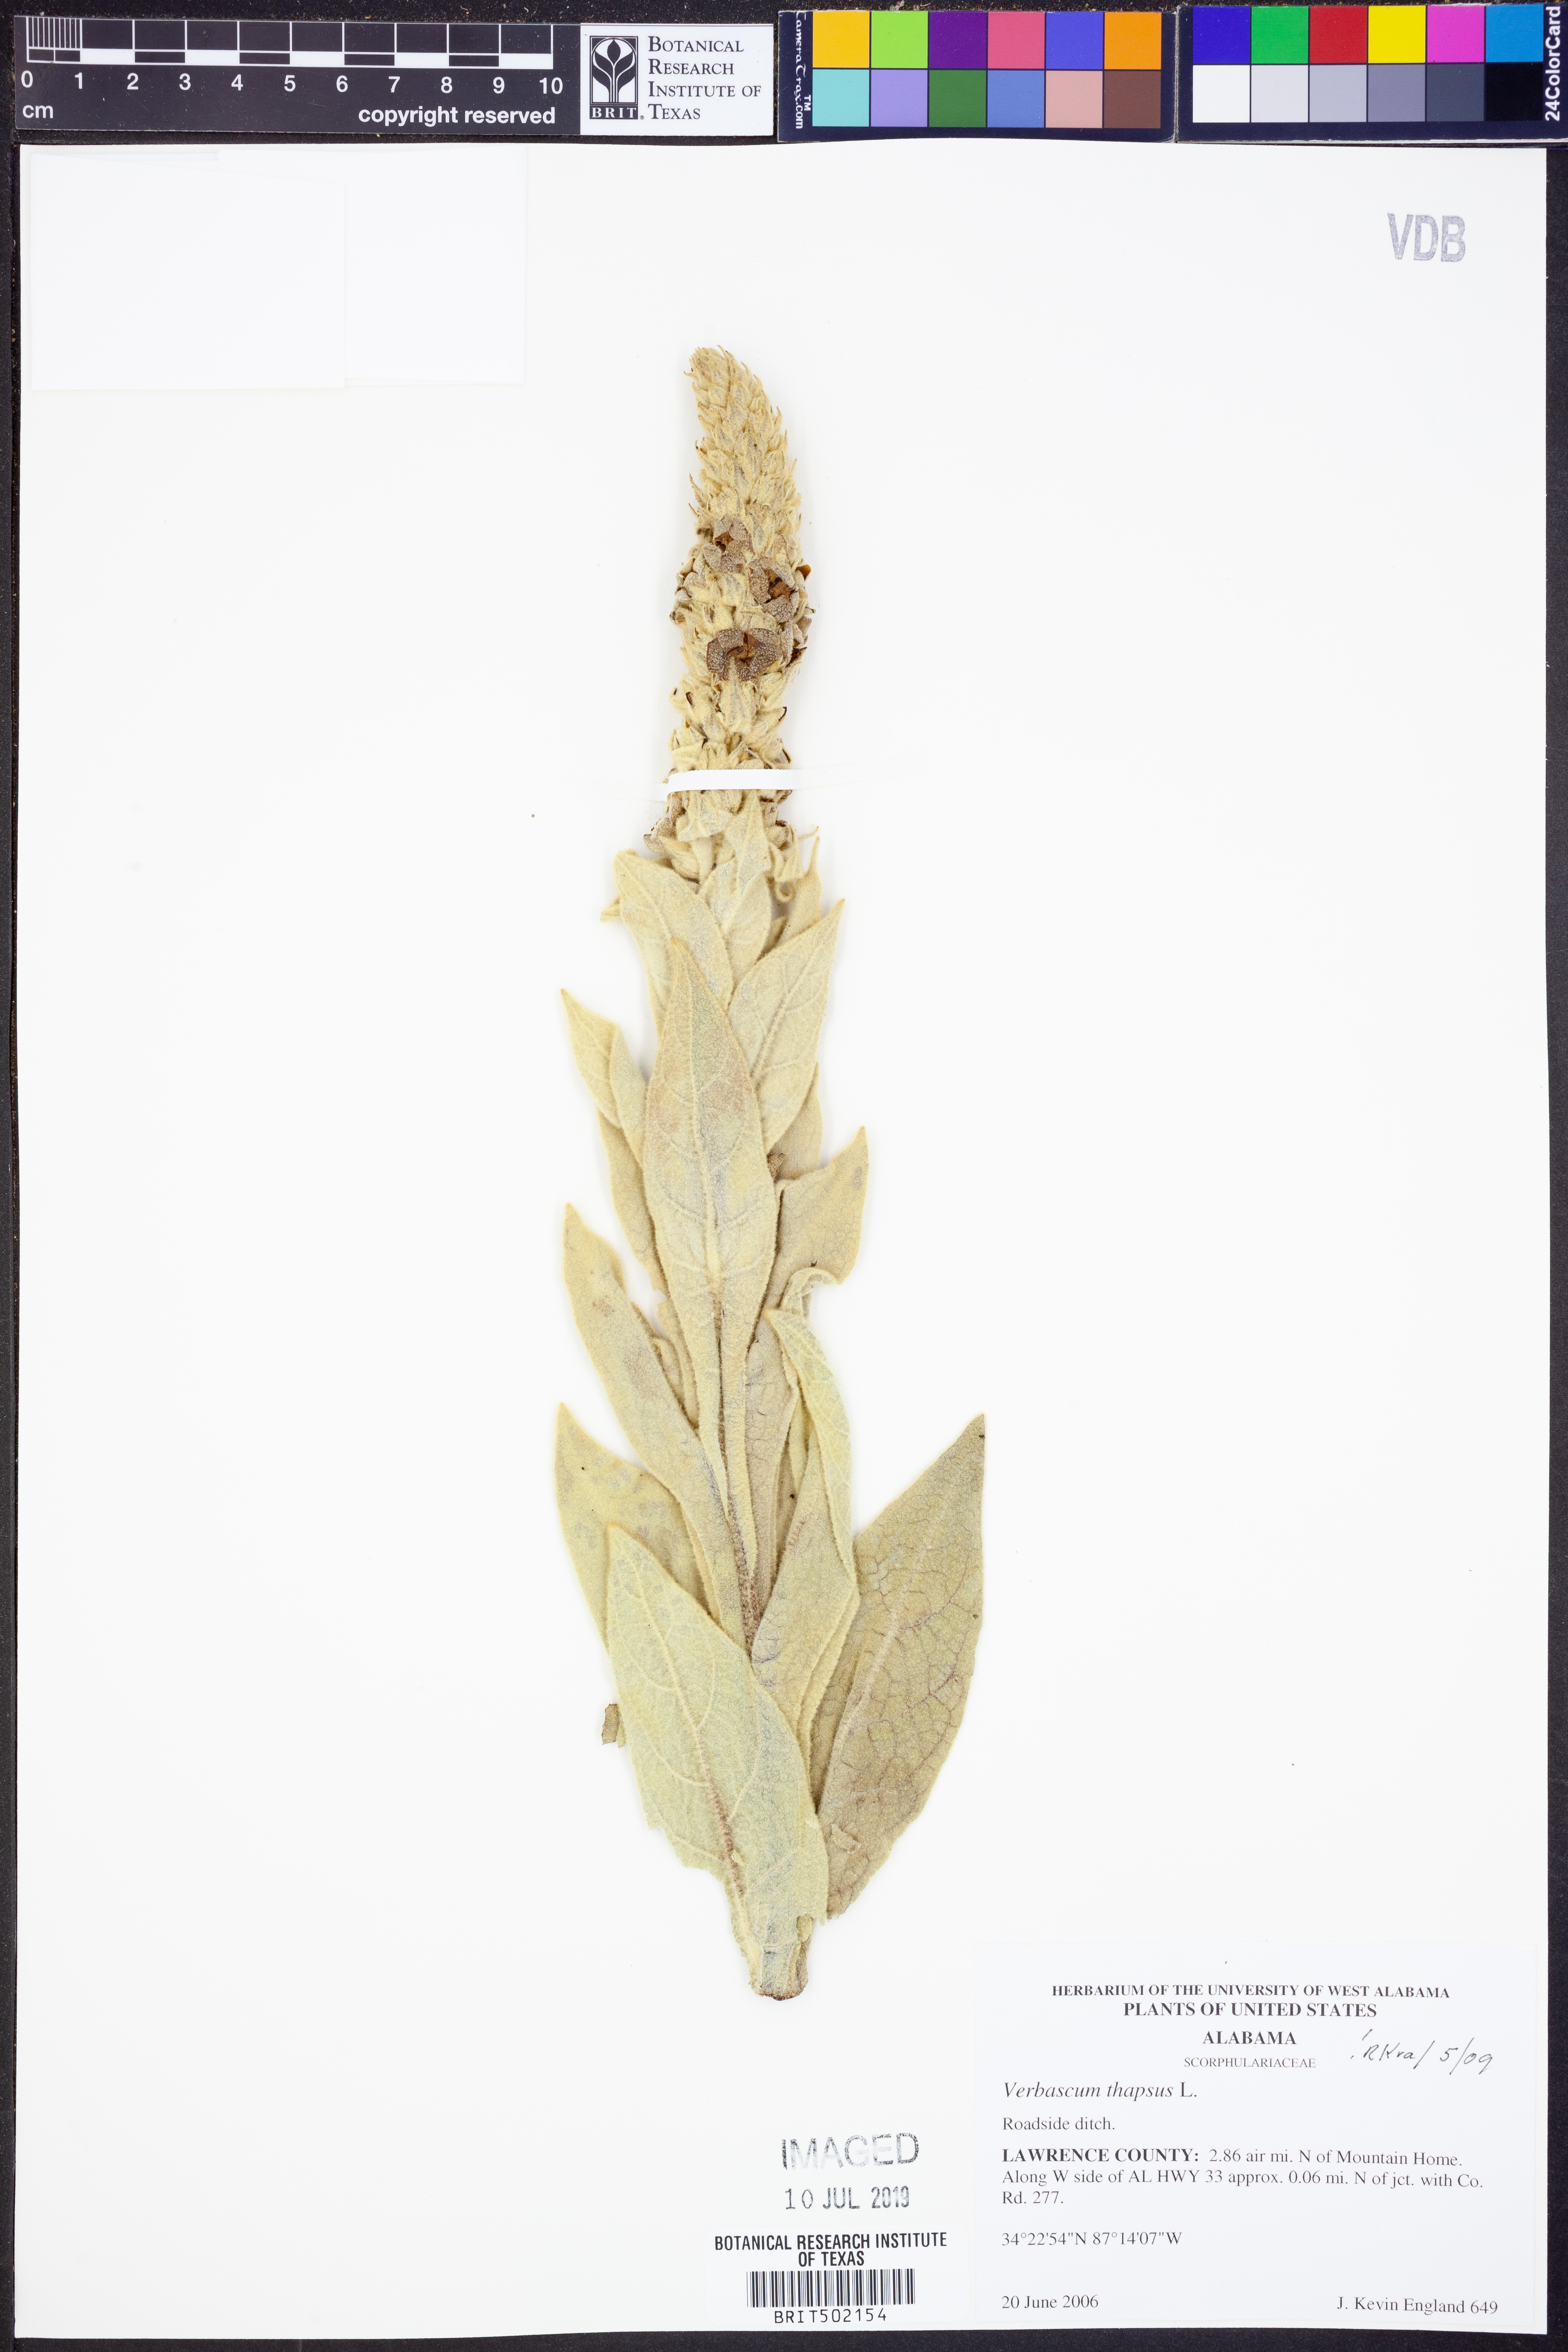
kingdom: Plantae
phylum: Tracheophyta
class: Magnoliopsida
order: Lamiales
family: Scrophulariaceae
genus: Verbascum
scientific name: Verbascum thapsus
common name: Common mullein
